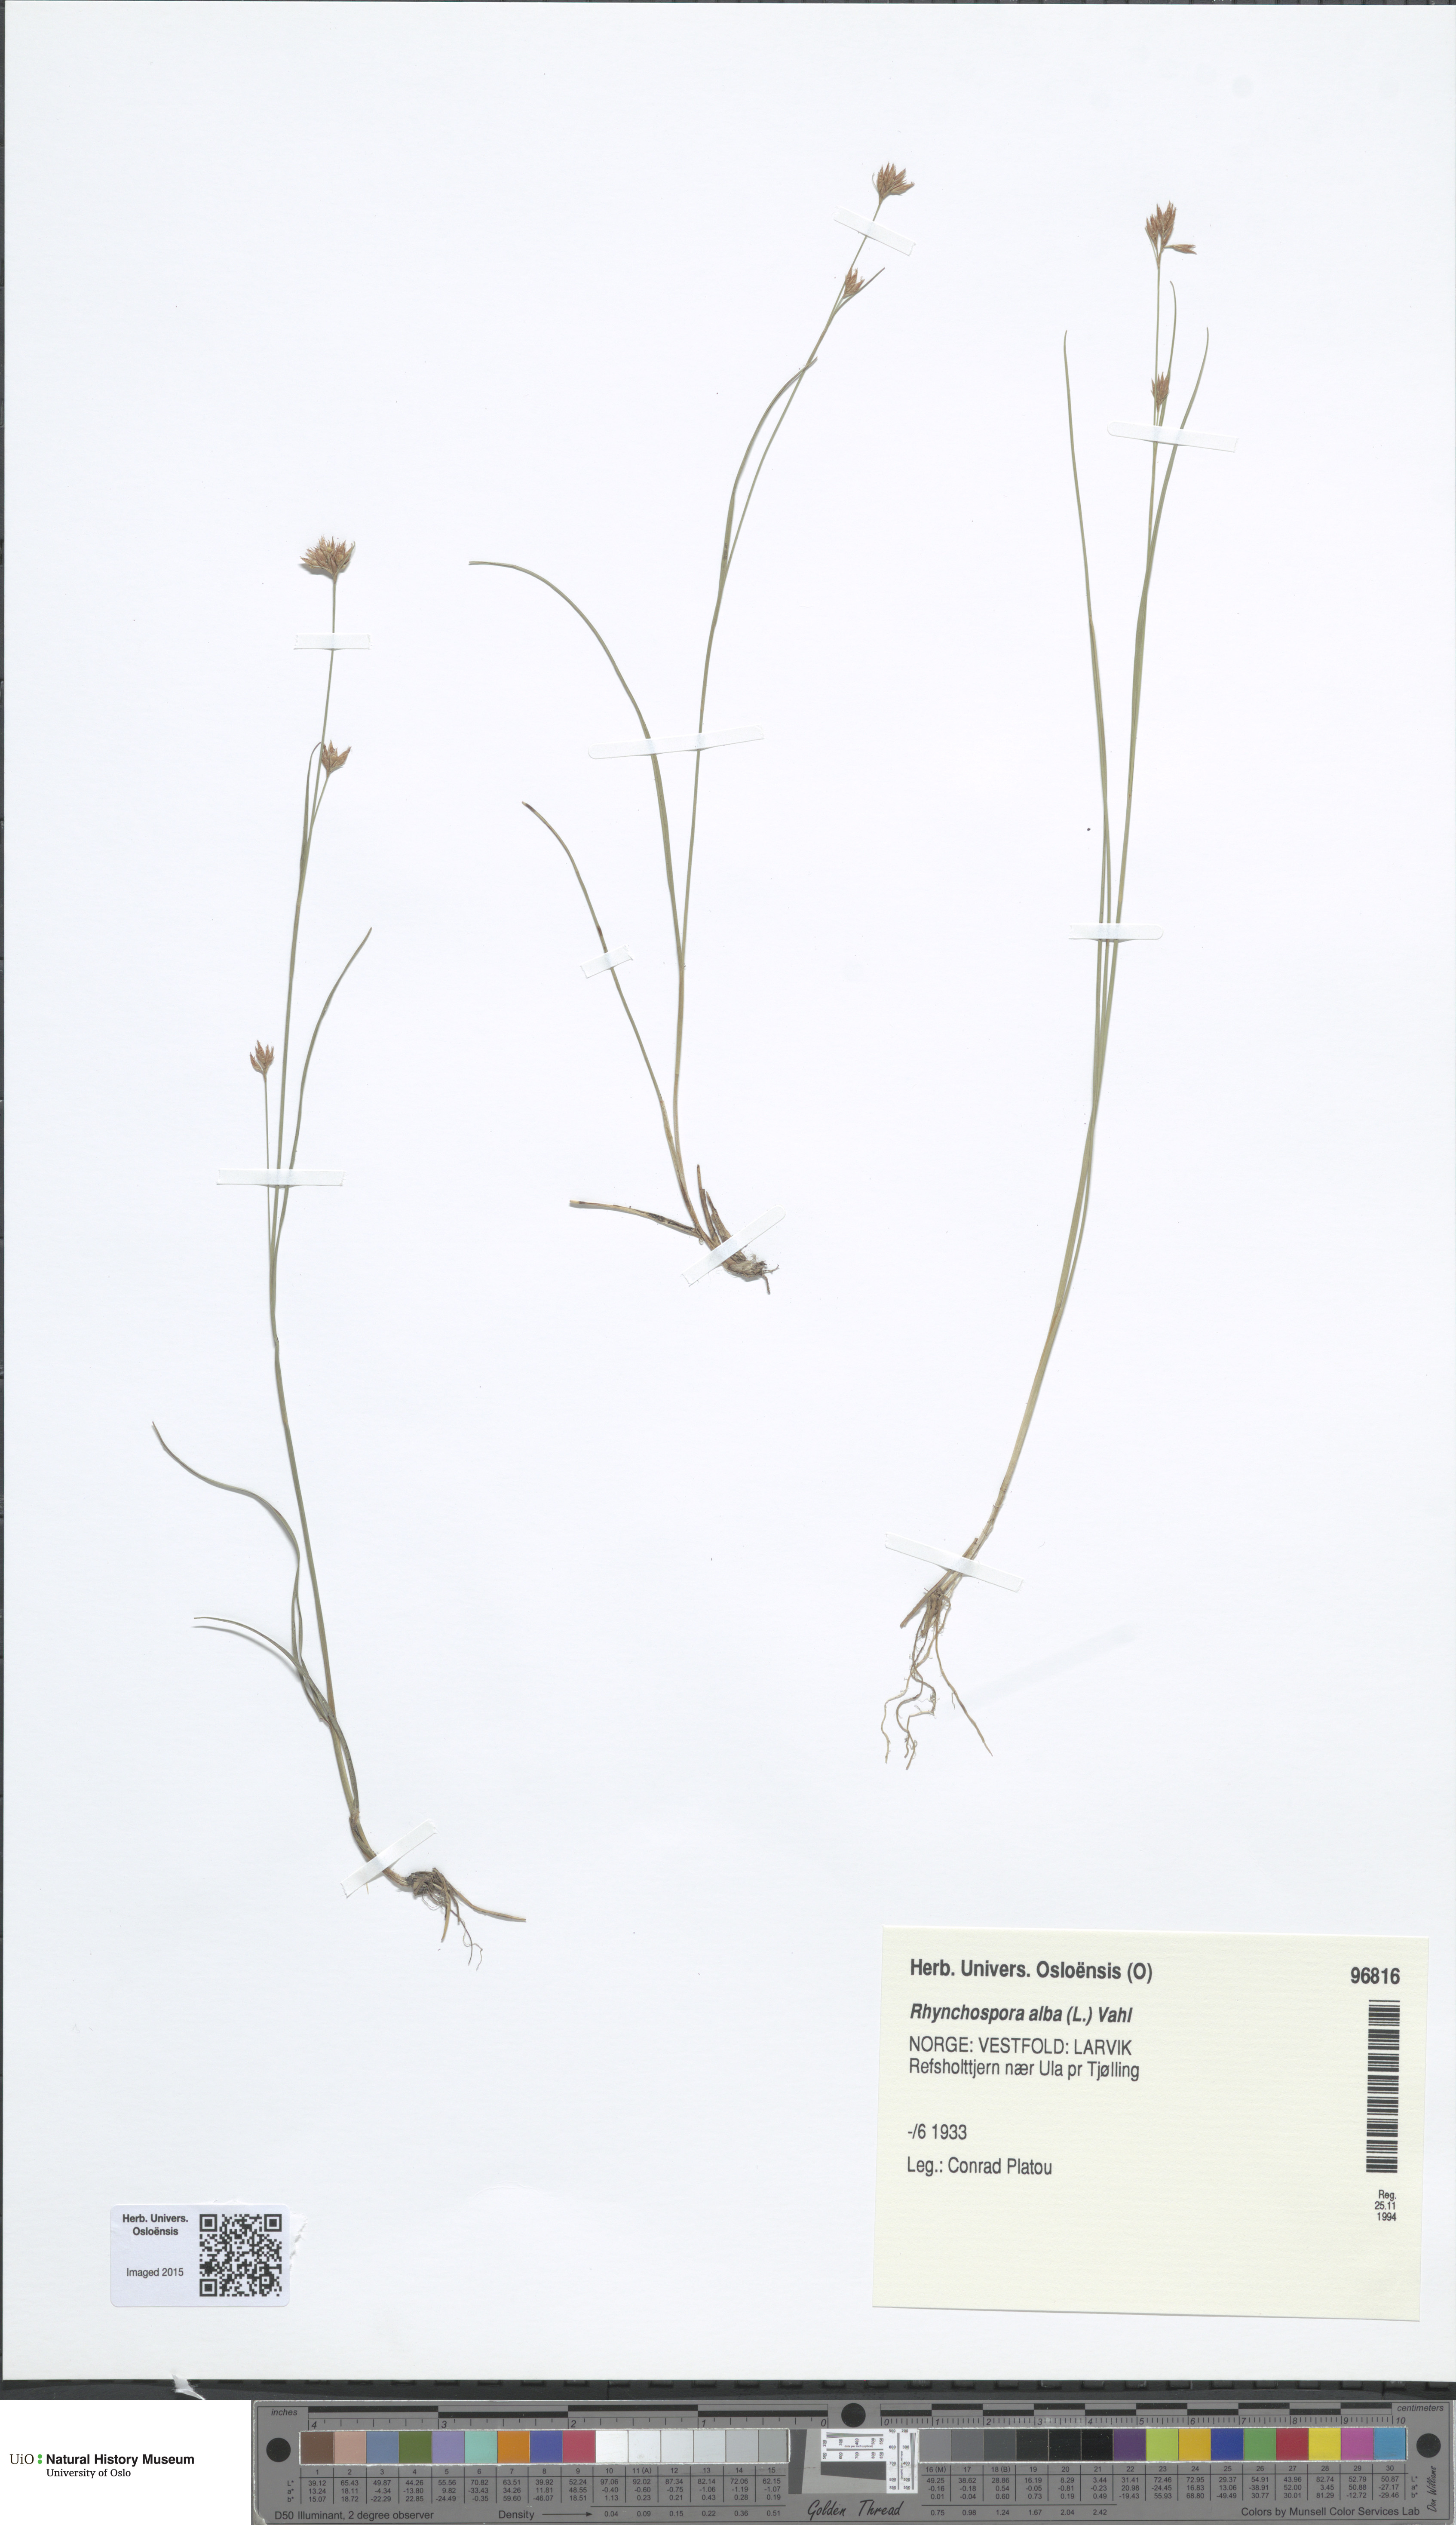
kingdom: Plantae
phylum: Tracheophyta
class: Liliopsida
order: Poales
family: Cyperaceae
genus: Rhynchospora
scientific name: Rhynchospora alba
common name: White beak-sedge
